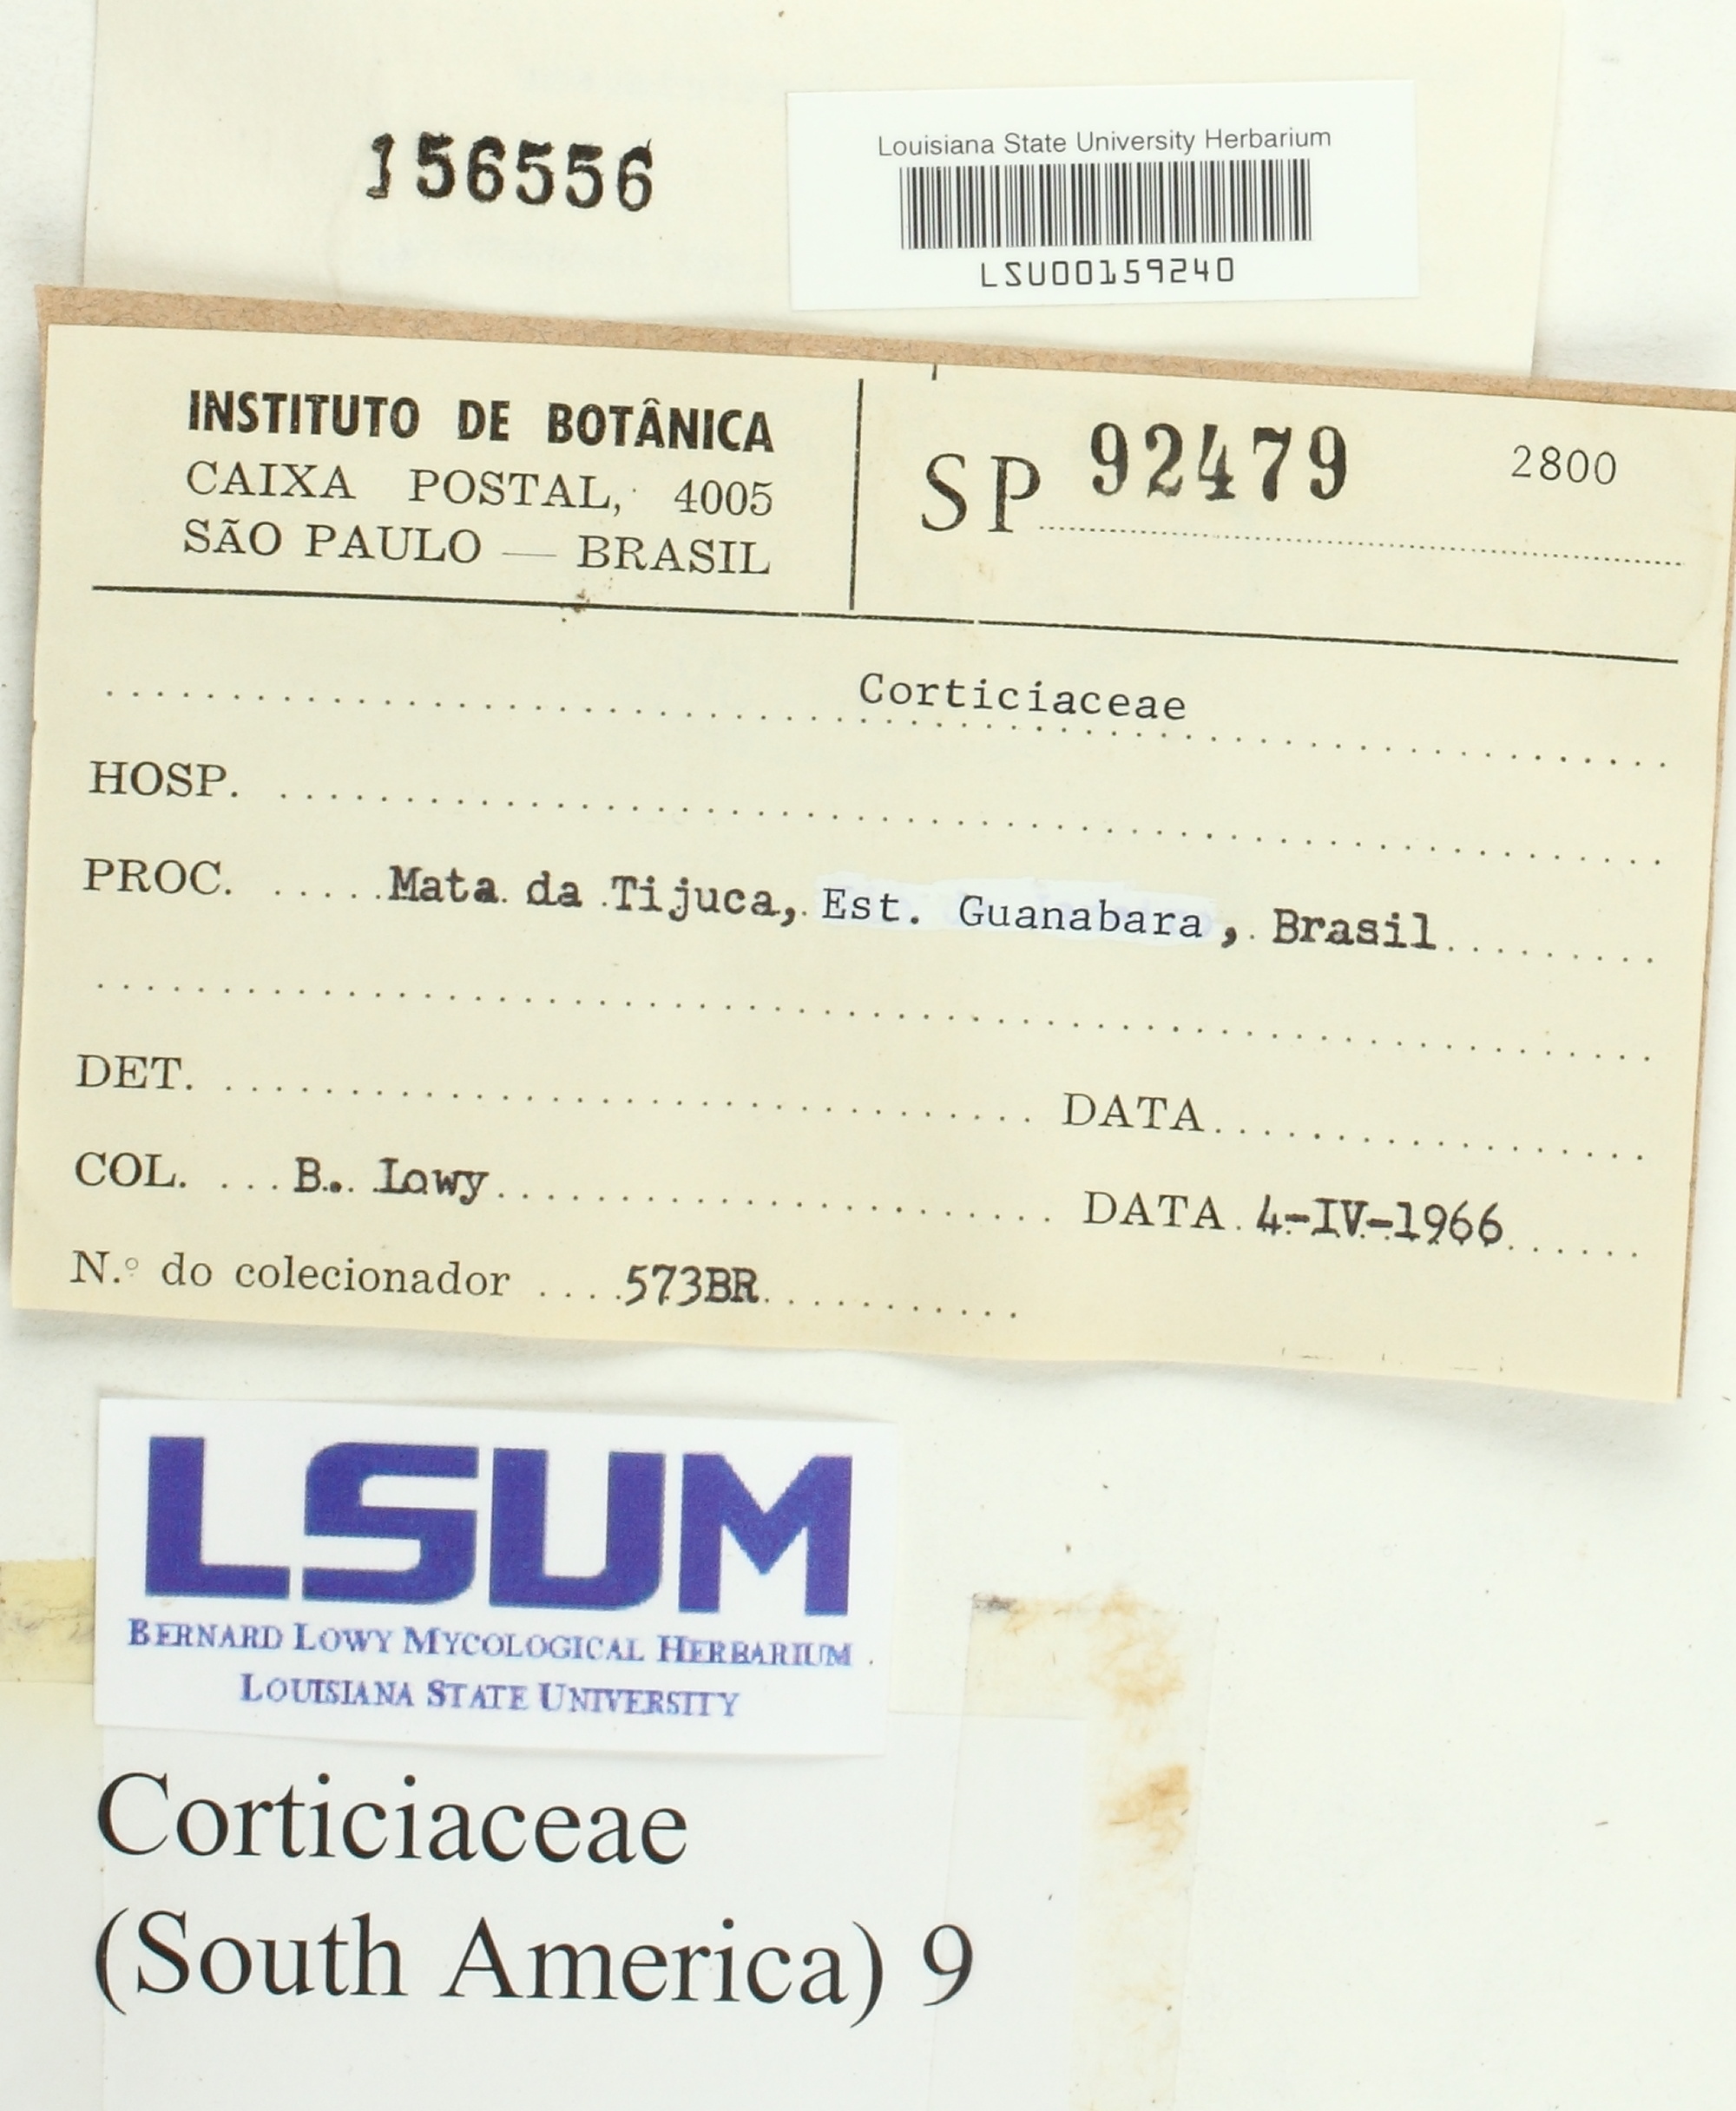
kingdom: Fungi
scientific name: Fungi
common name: Fungi
